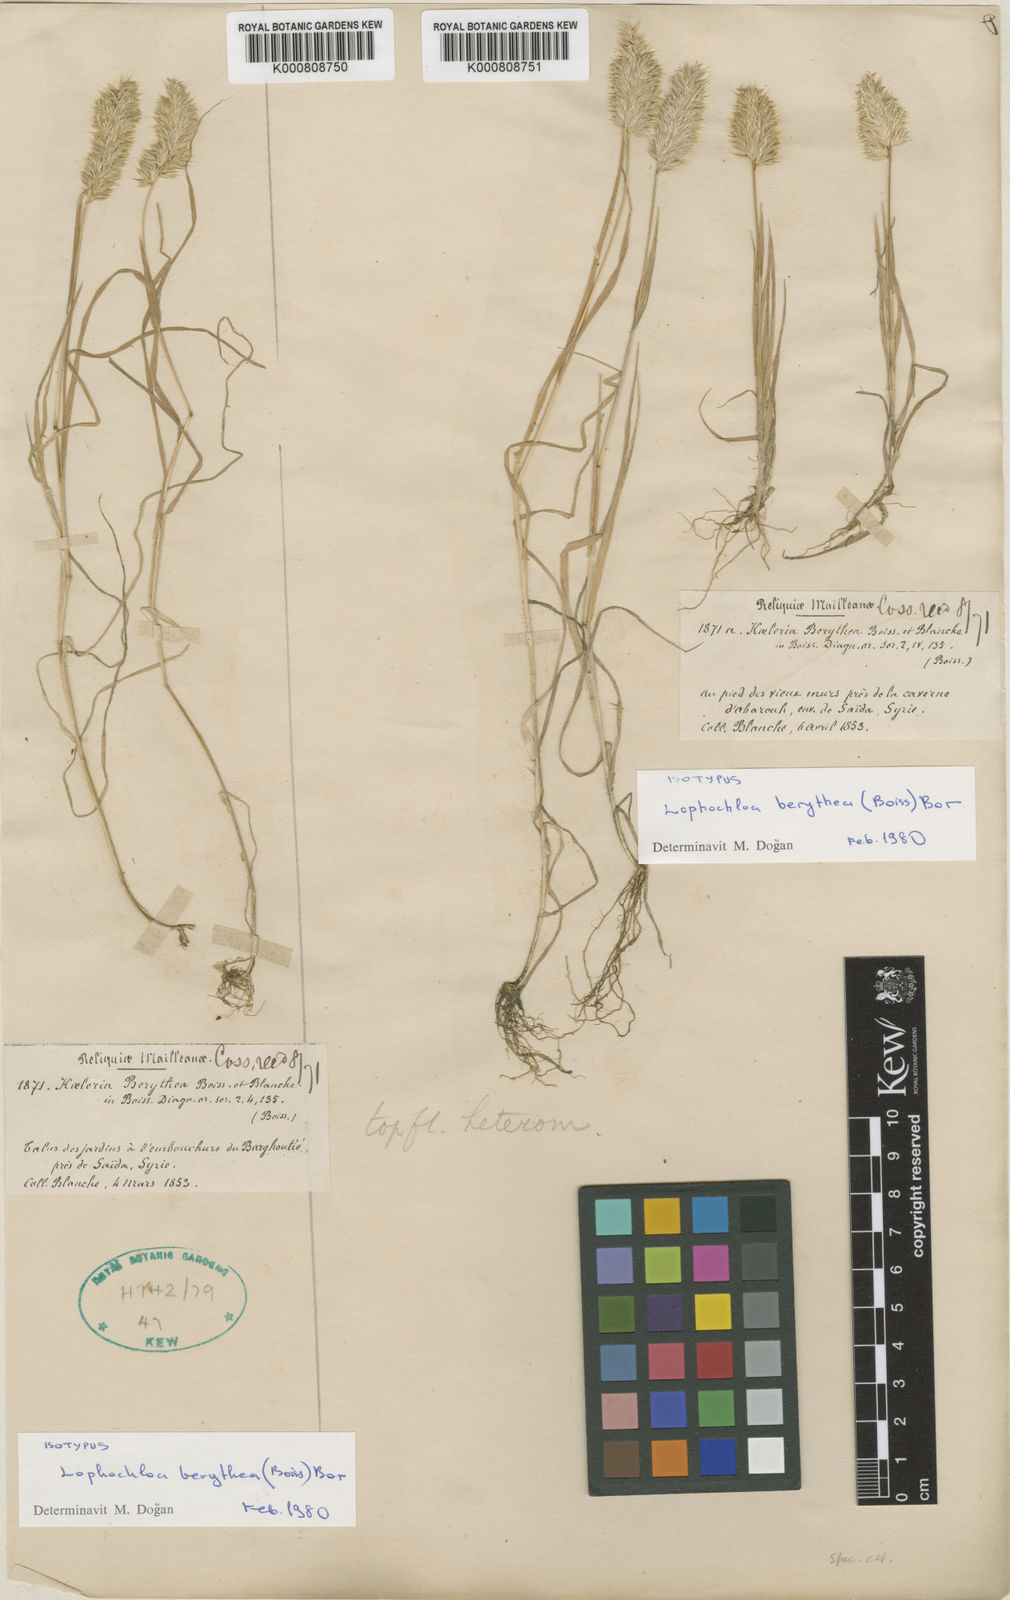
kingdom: Plantae
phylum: Tracheophyta
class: Liliopsida
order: Poales
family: Poaceae
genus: Rostraria
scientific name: Rostraria smyrnaea
